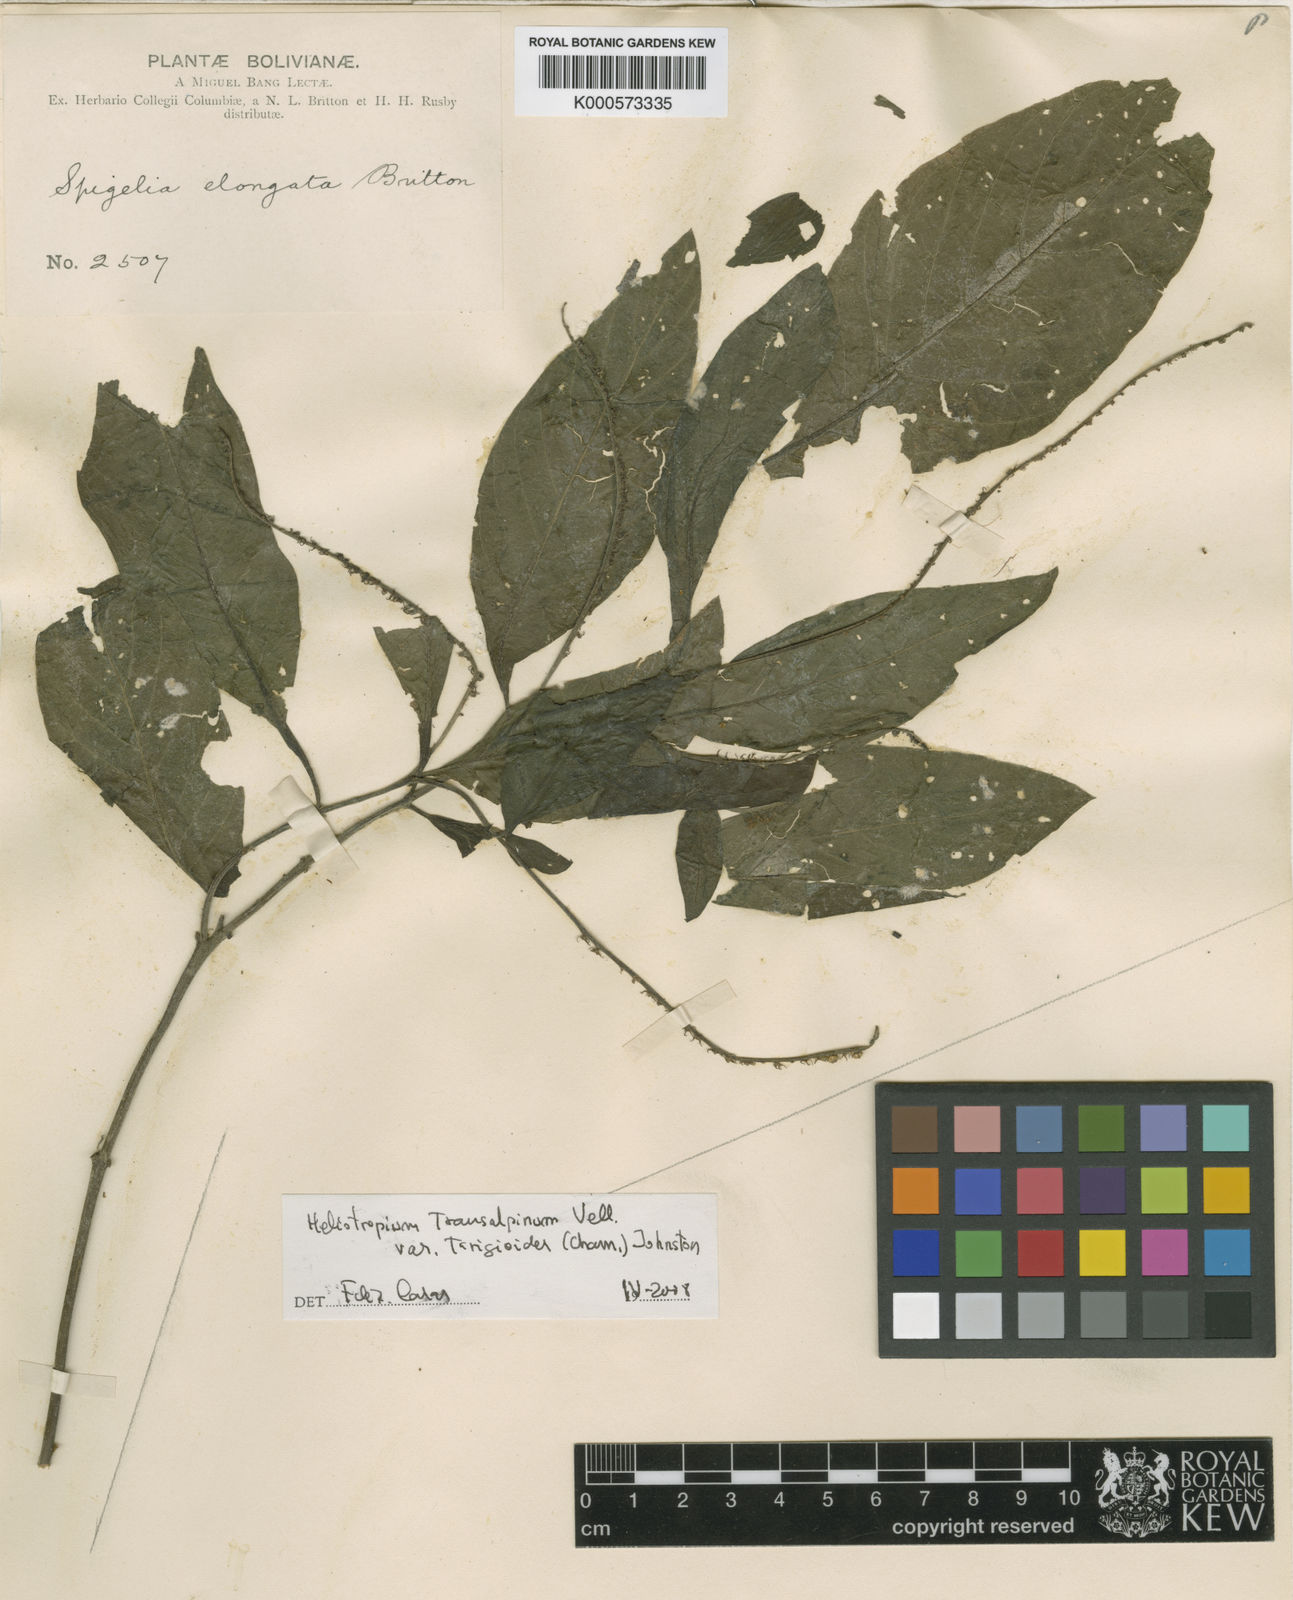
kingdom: Plantae
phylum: Tracheophyta
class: Magnoliopsida
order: Boraginales
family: Heliotropiaceae
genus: Heliotropium
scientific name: Heliotropium transalpinum
